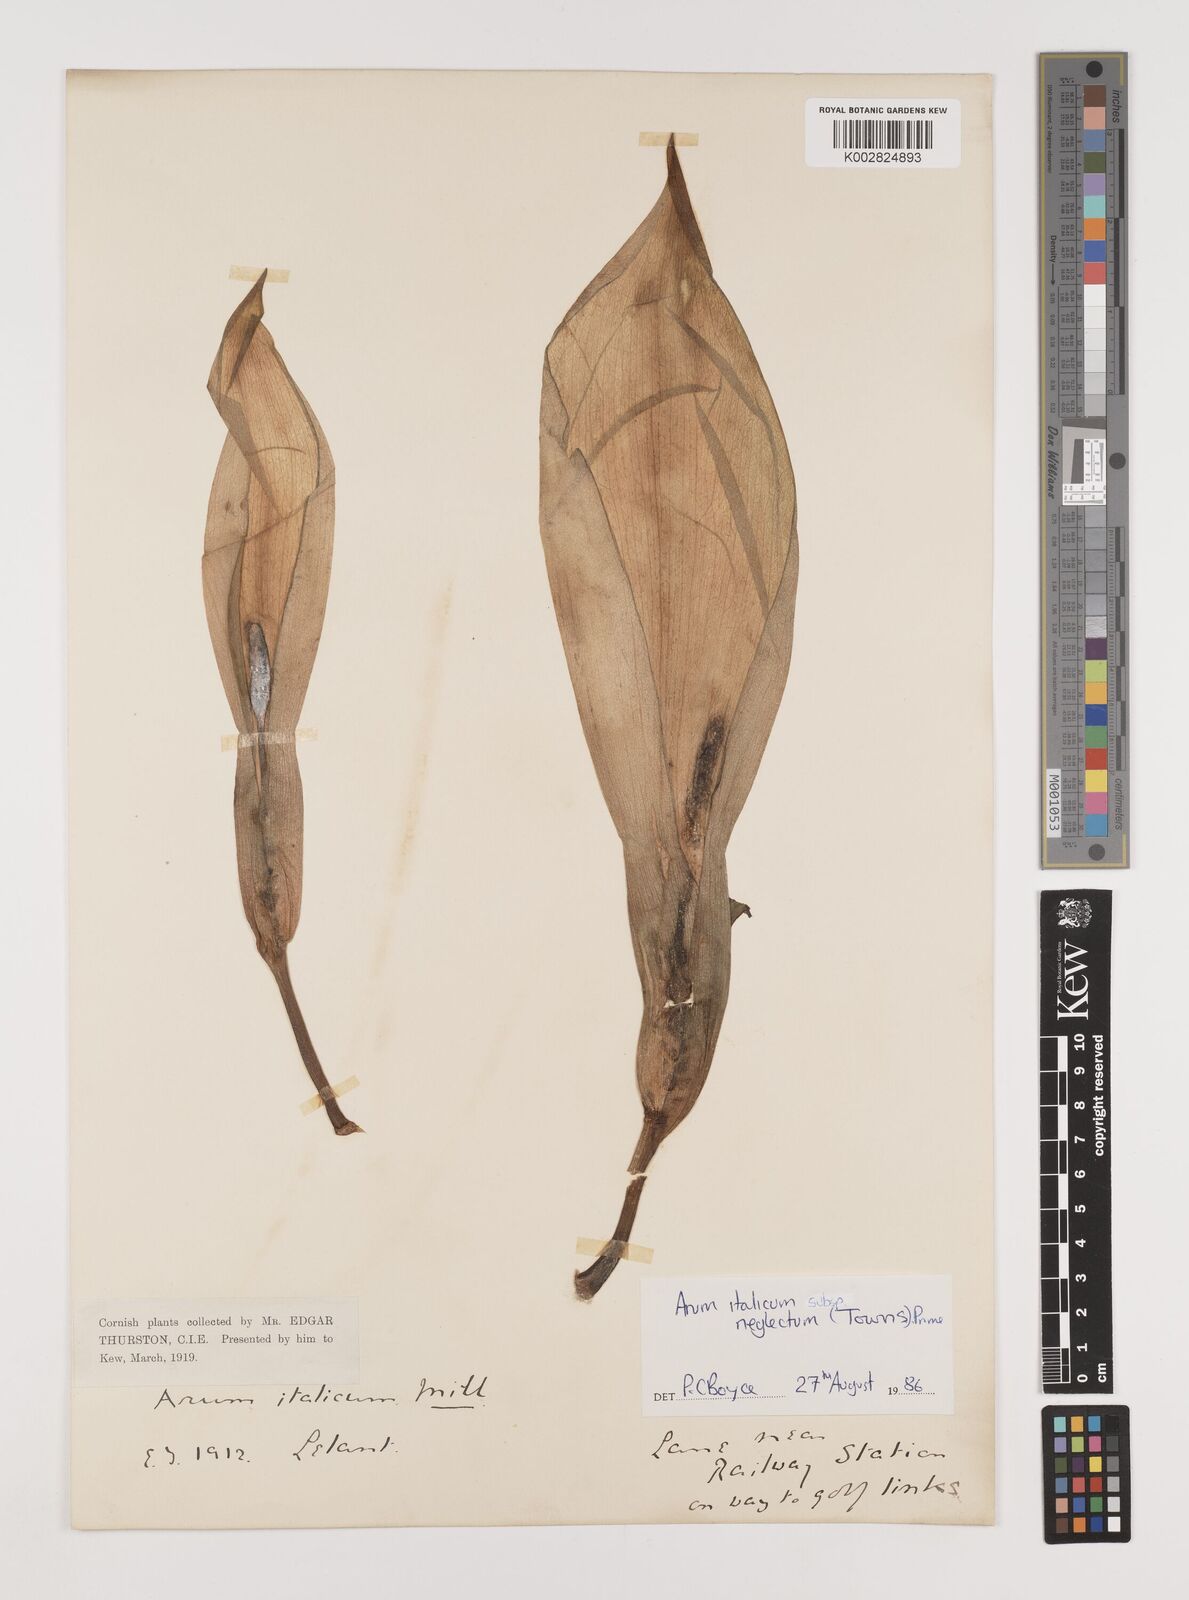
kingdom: Plantae
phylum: Tracheophyta
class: Liliopsida
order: Alismatales
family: Araceae
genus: Arum
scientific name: Arum italicum
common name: Italian lords-and-ladies
